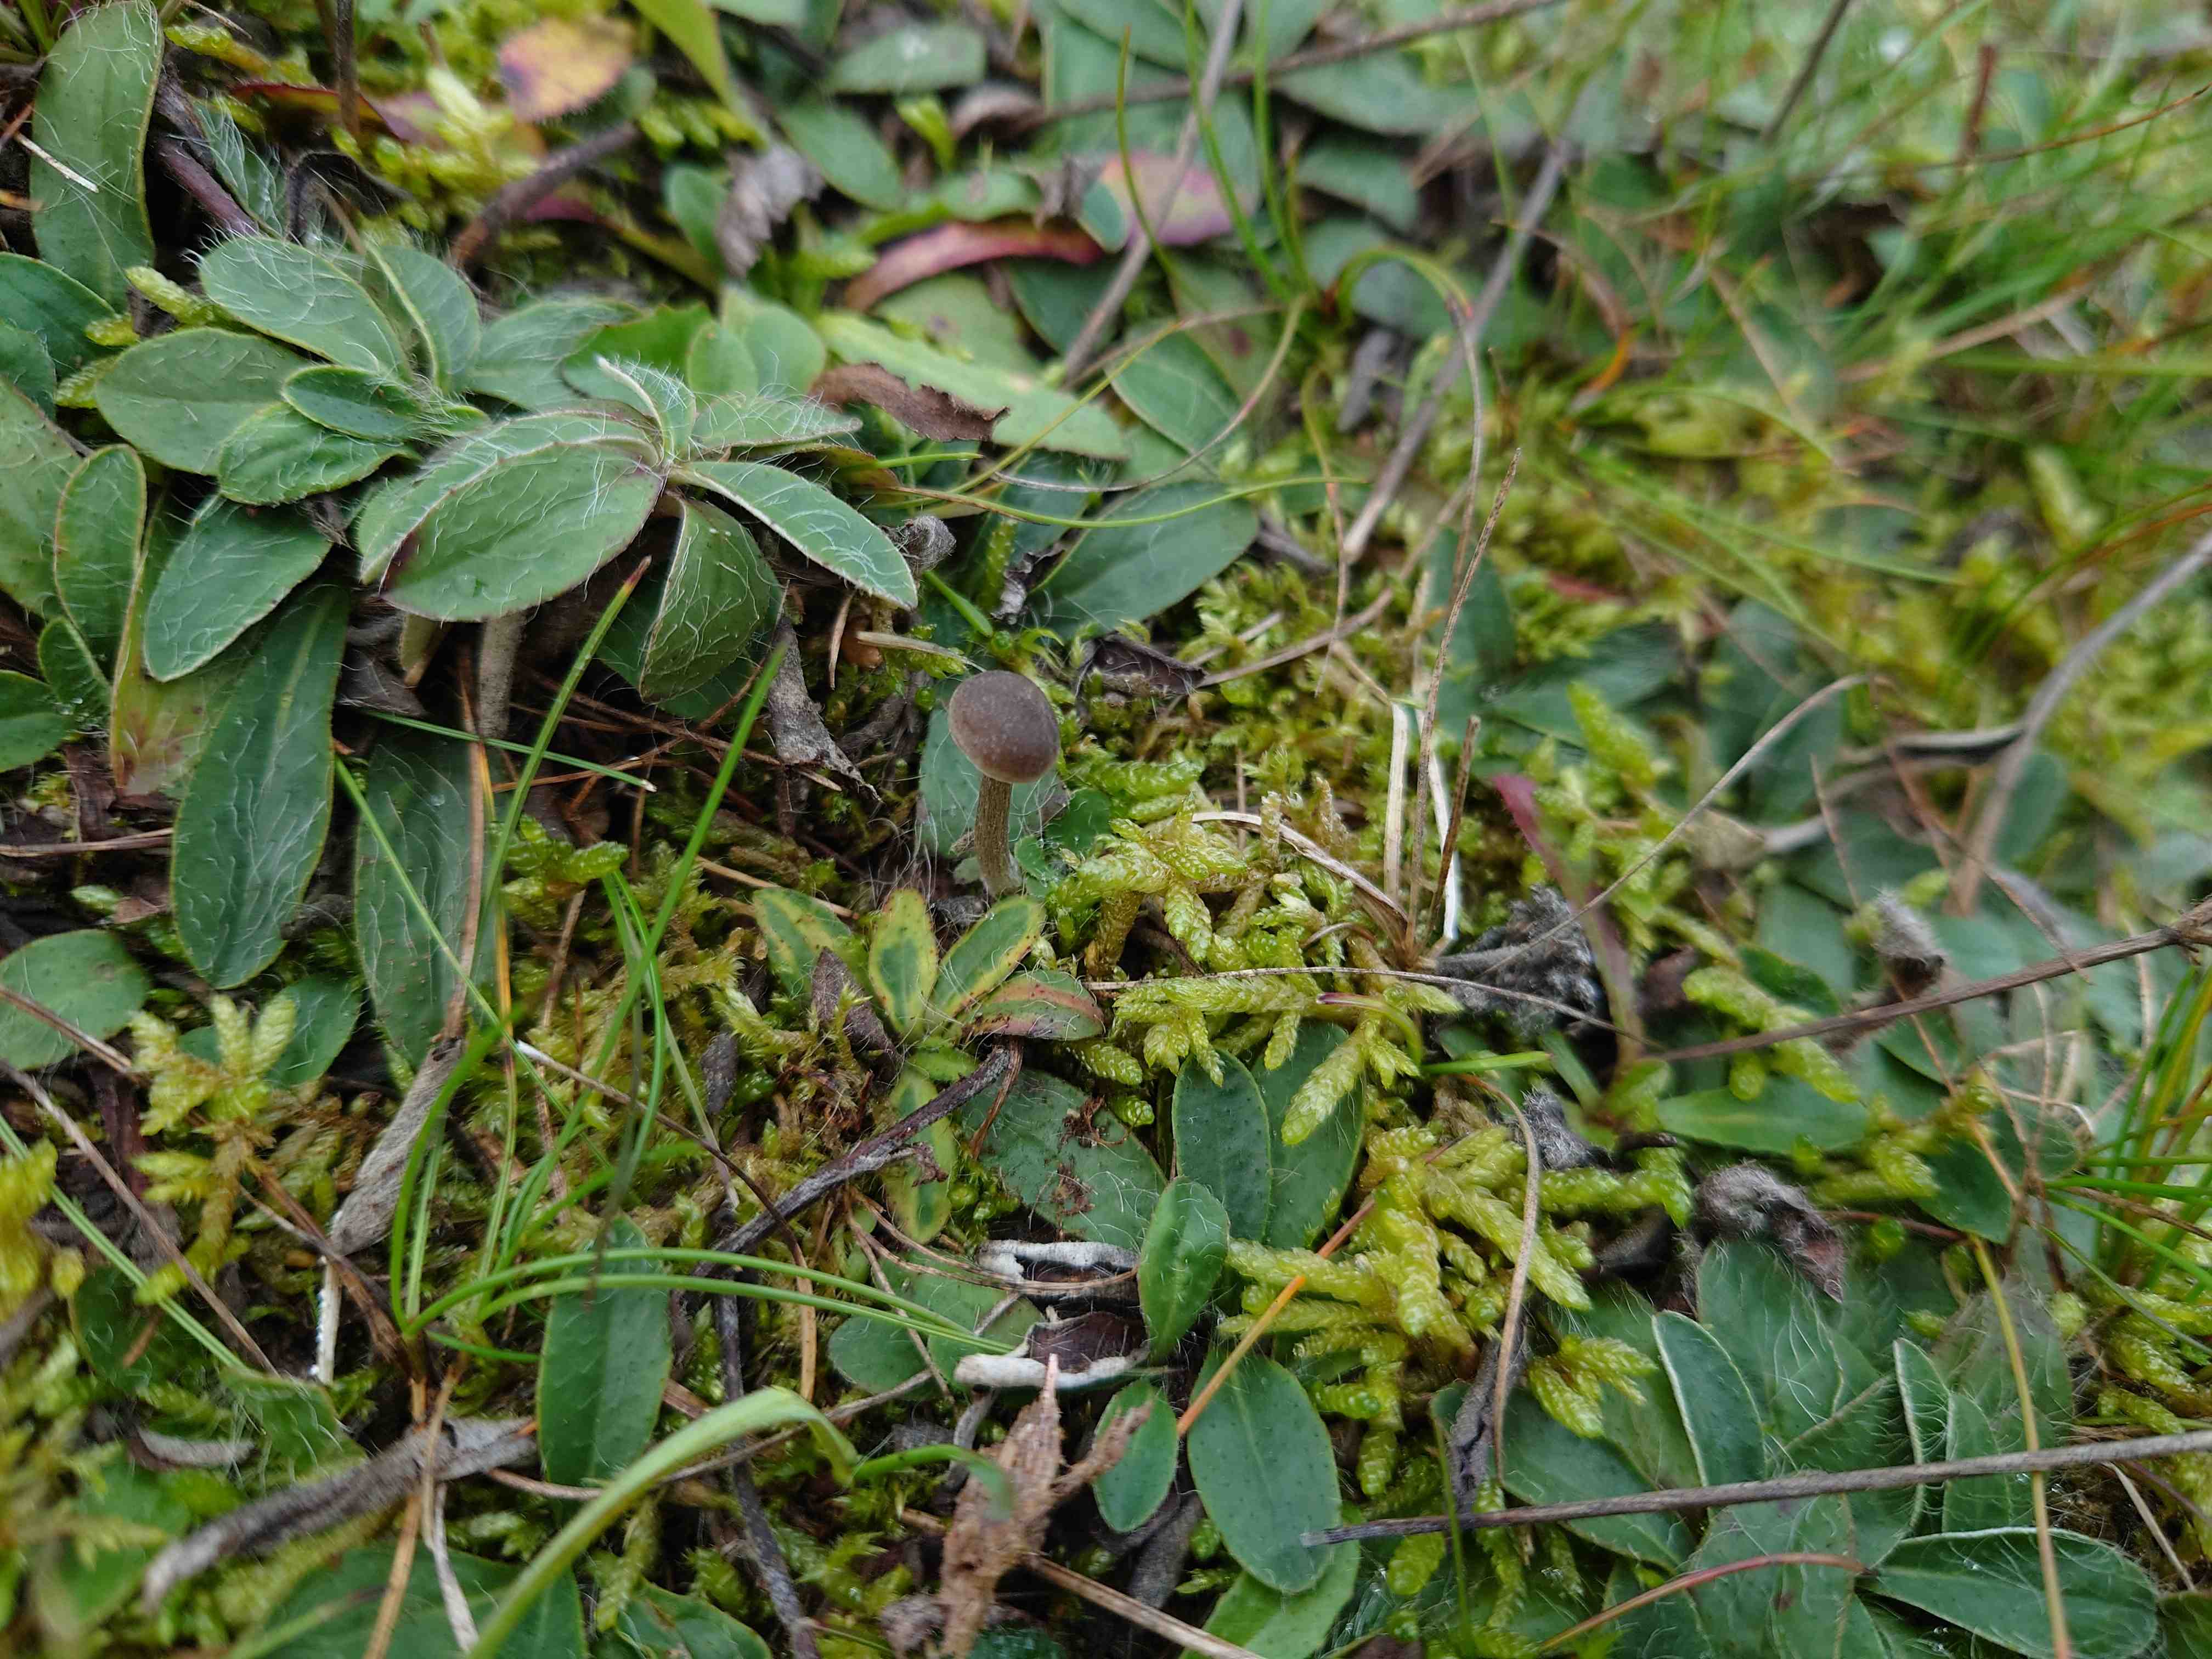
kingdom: Fungi
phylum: Basidiomycota
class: Agaricomycetes
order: Agaricales
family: Entolomataceae
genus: Entoloma
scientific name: Entoloma
